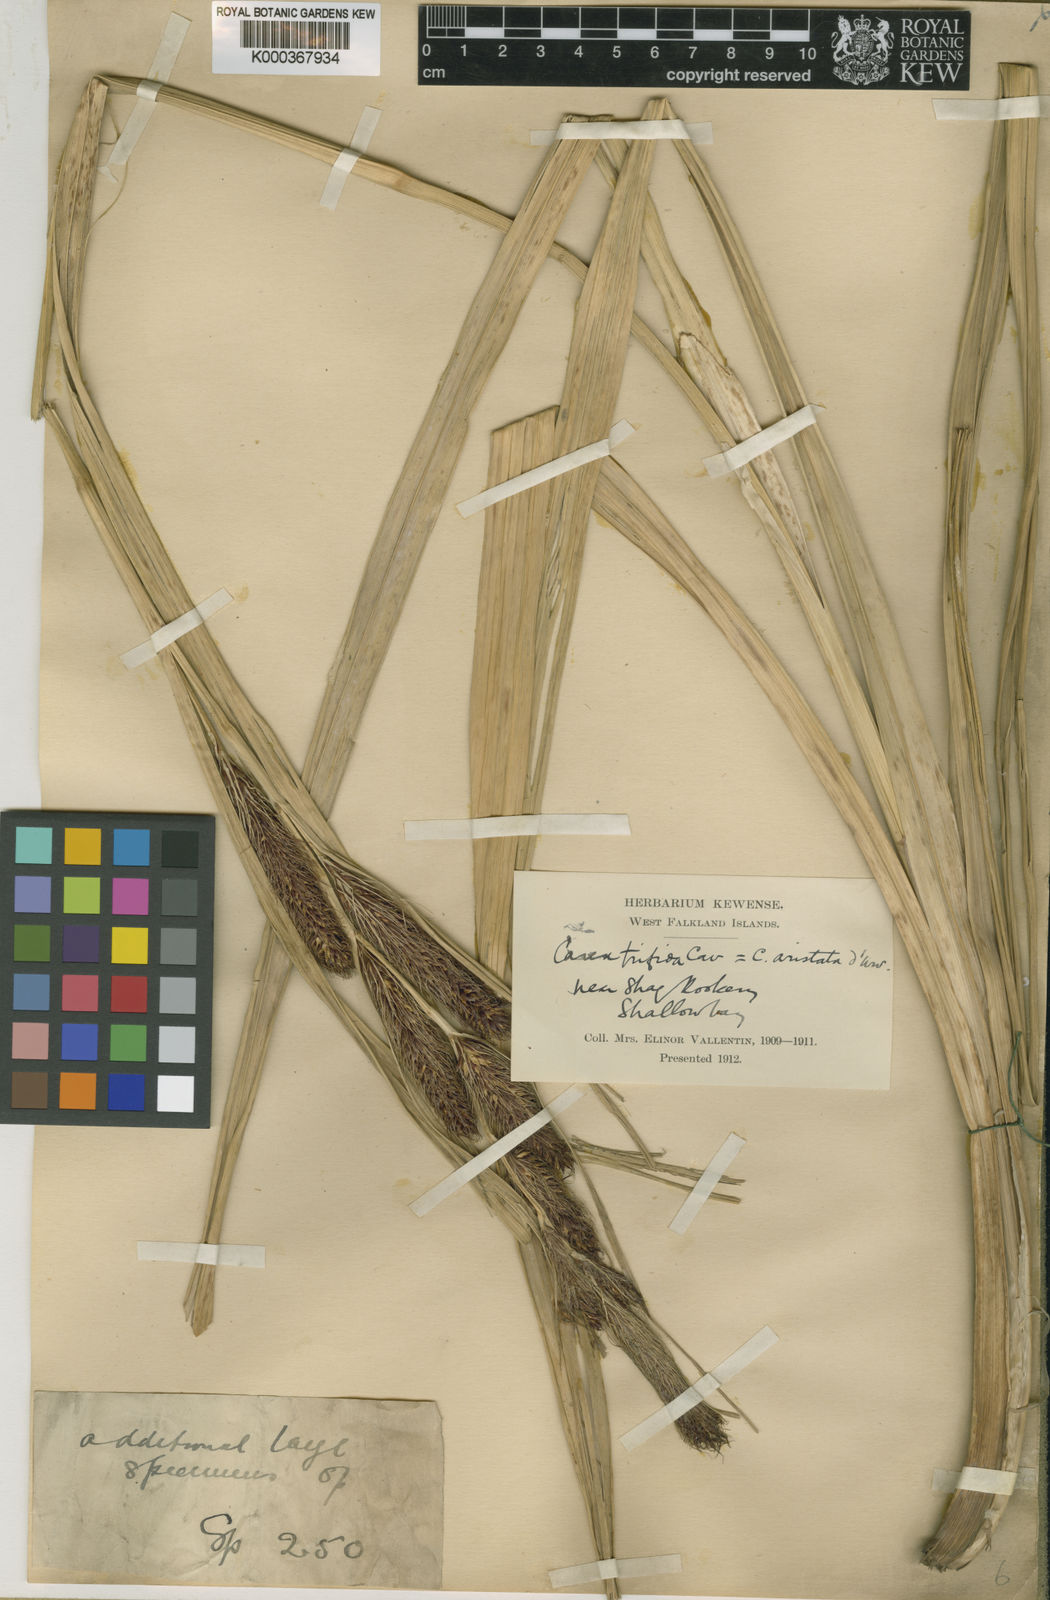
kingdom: Plantae
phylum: Tracheophyta
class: Liliopsida
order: Poales
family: Cyperaceae
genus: Carex
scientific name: Carex trifida
